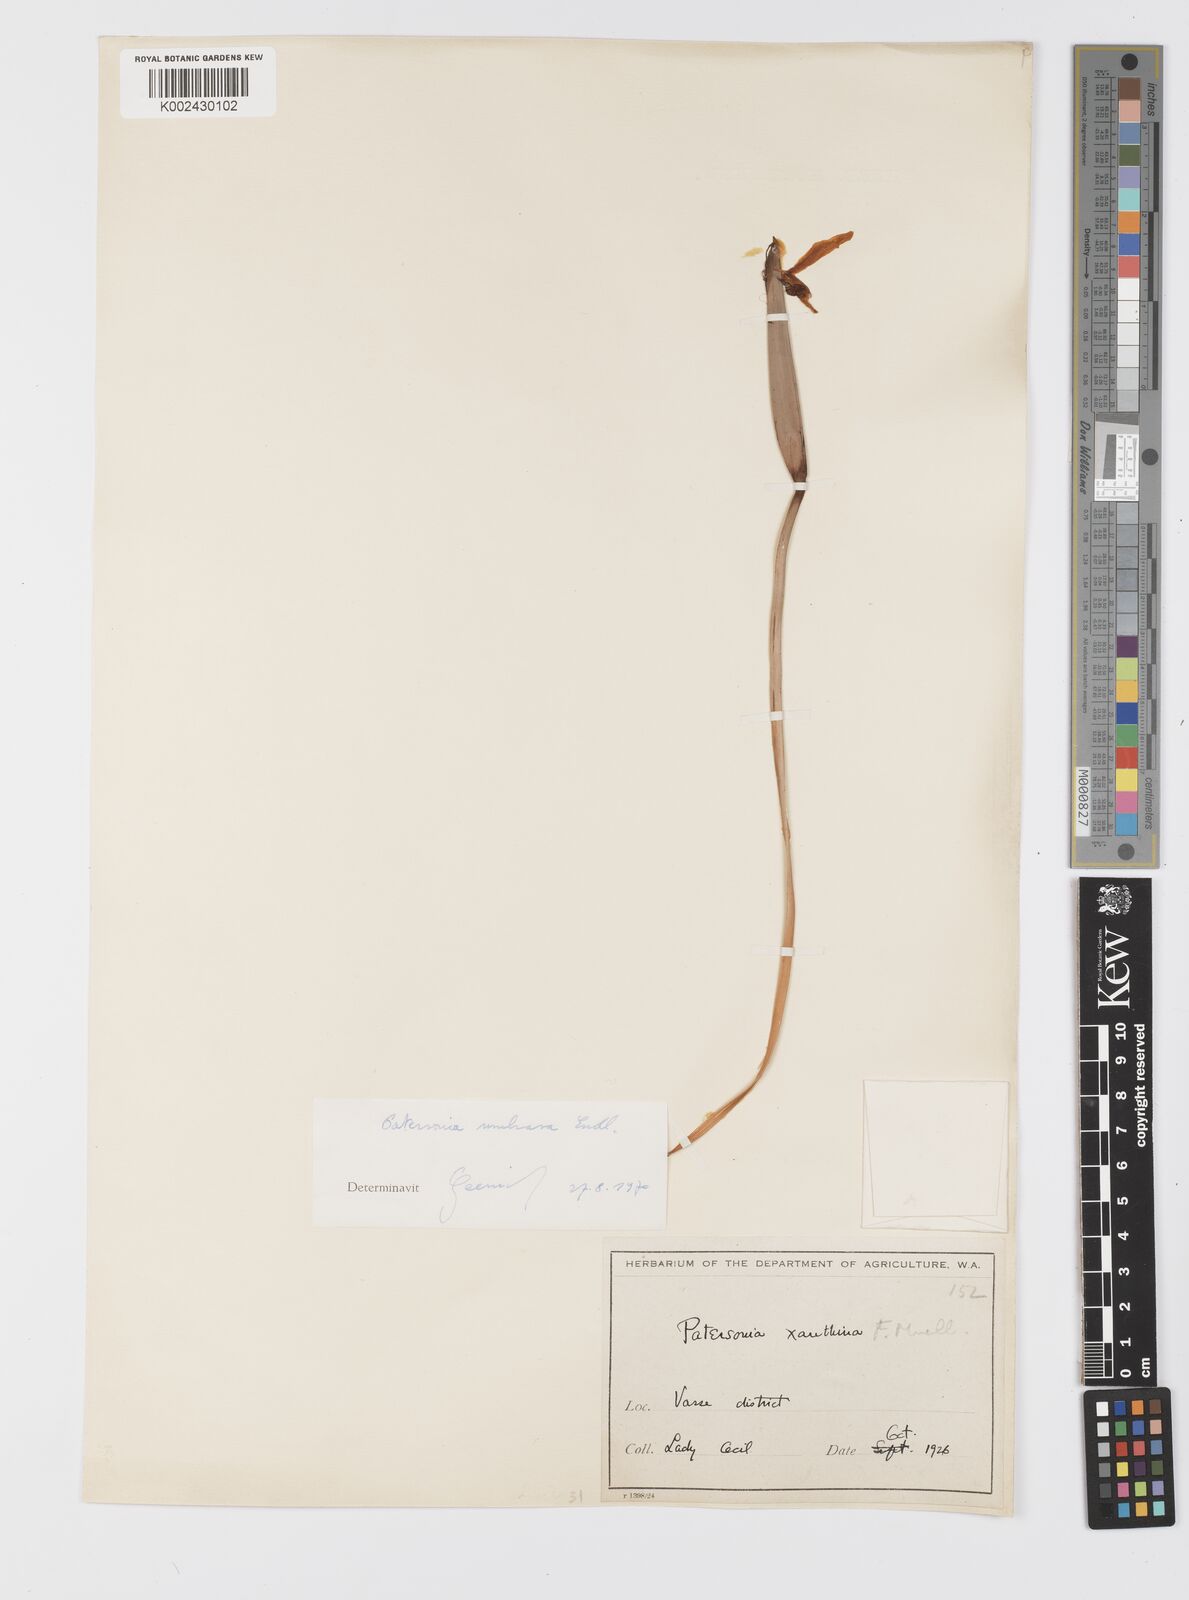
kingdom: Plantae
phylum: Tracheophyta
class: Liliopsida
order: Asparagales
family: Iridaceae
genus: Patersonia
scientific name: Patersonia umbrosa
